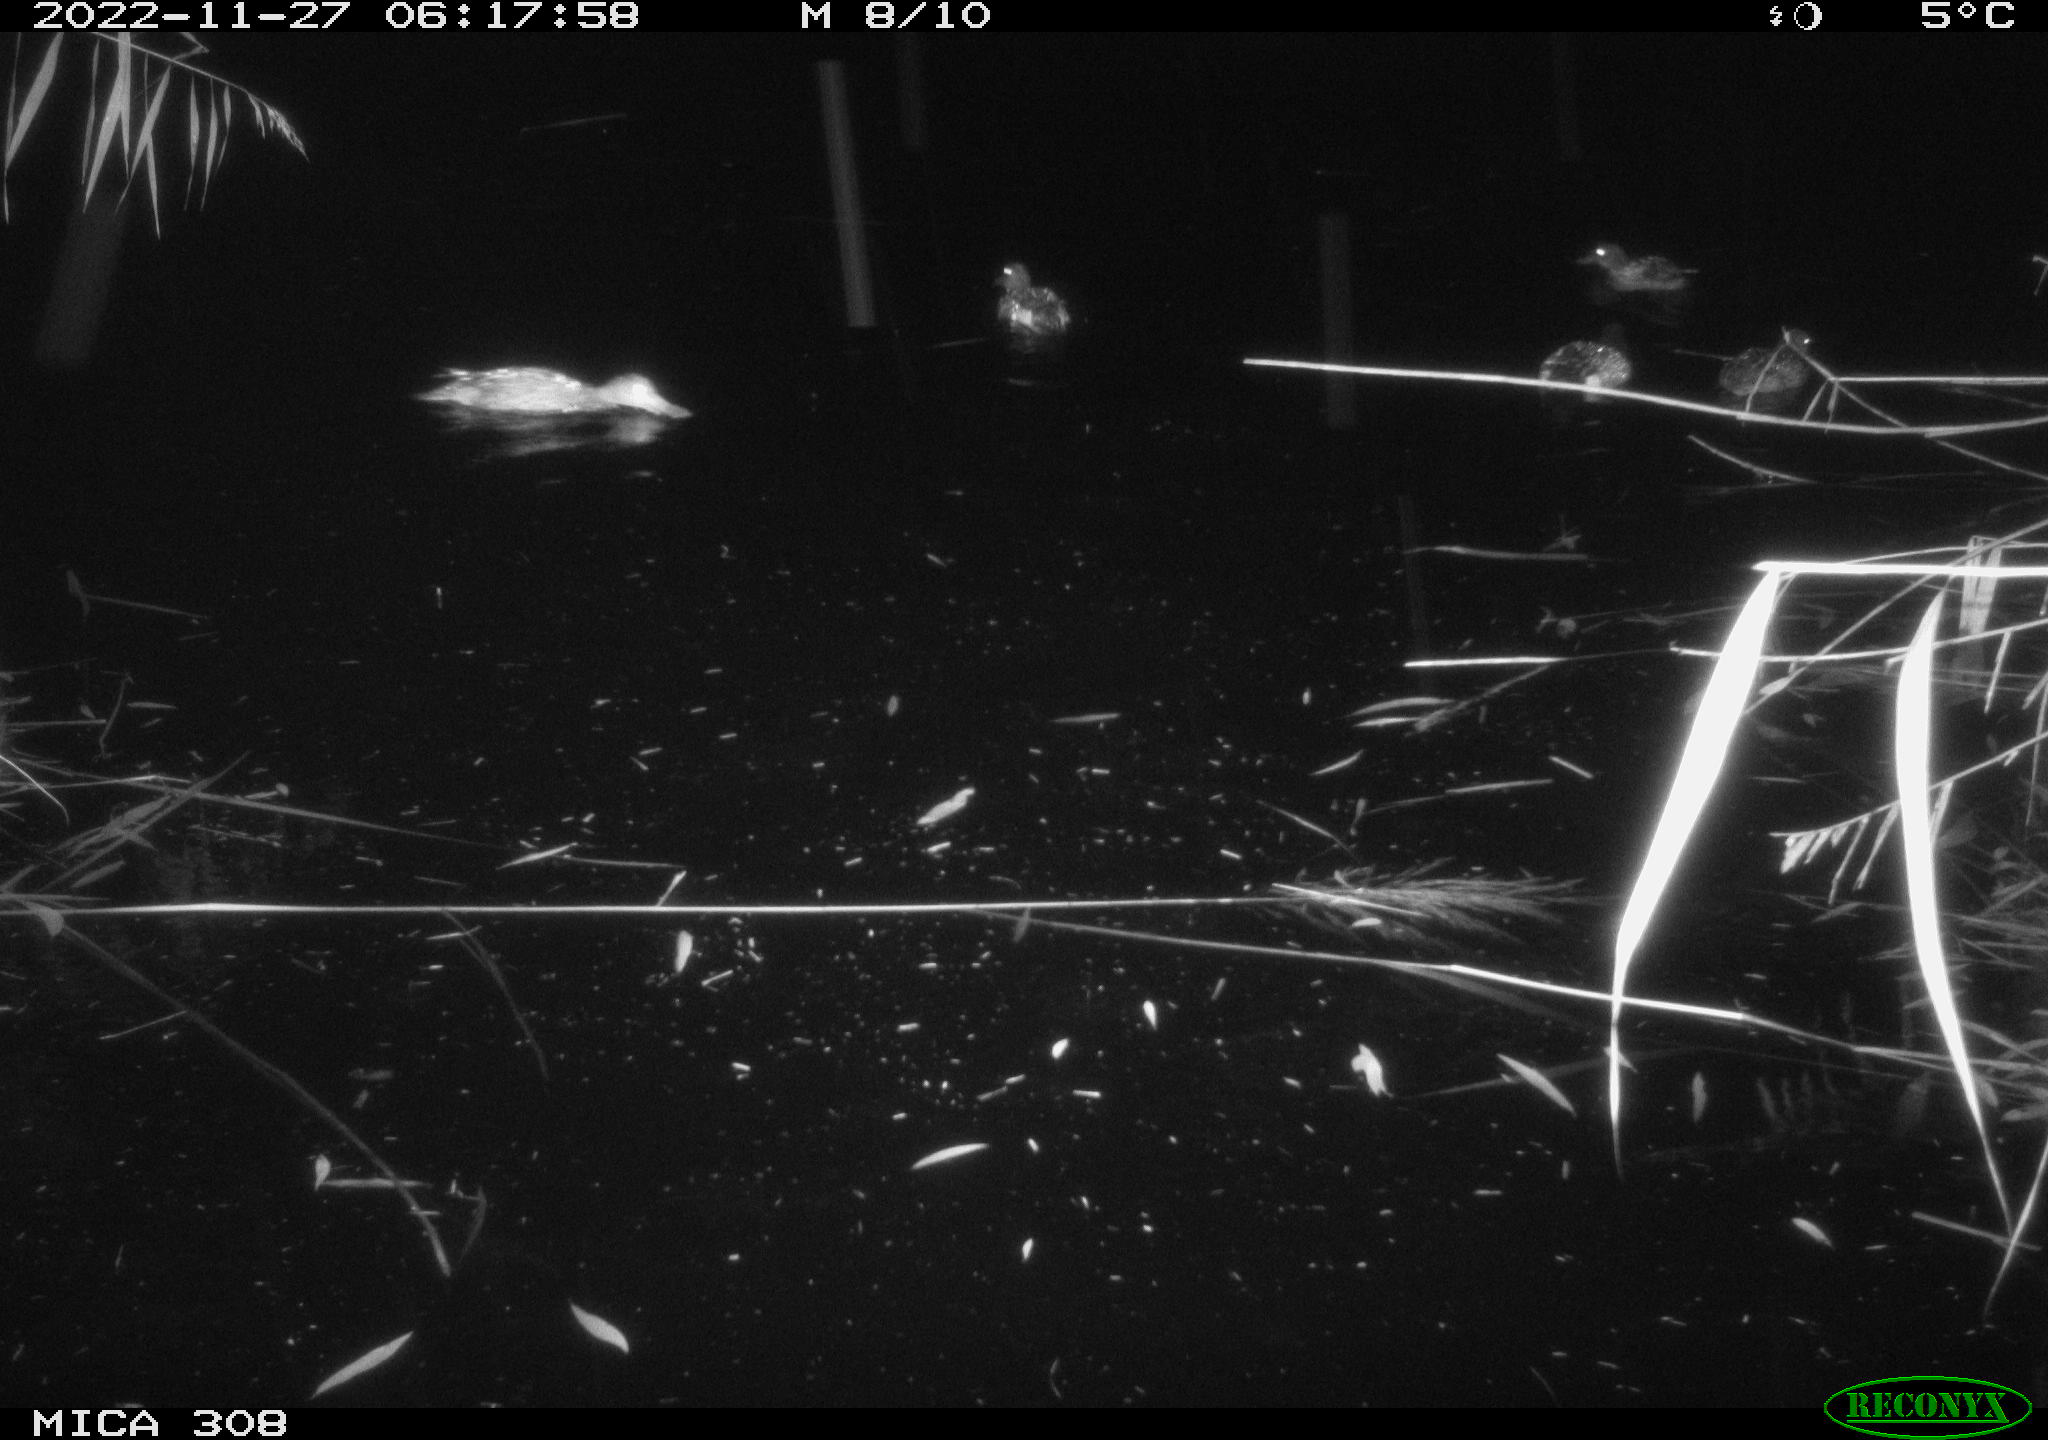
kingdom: Animalia
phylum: Chordata
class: Aves
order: Anseriformes
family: Anatidae
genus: Anas
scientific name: Anas
